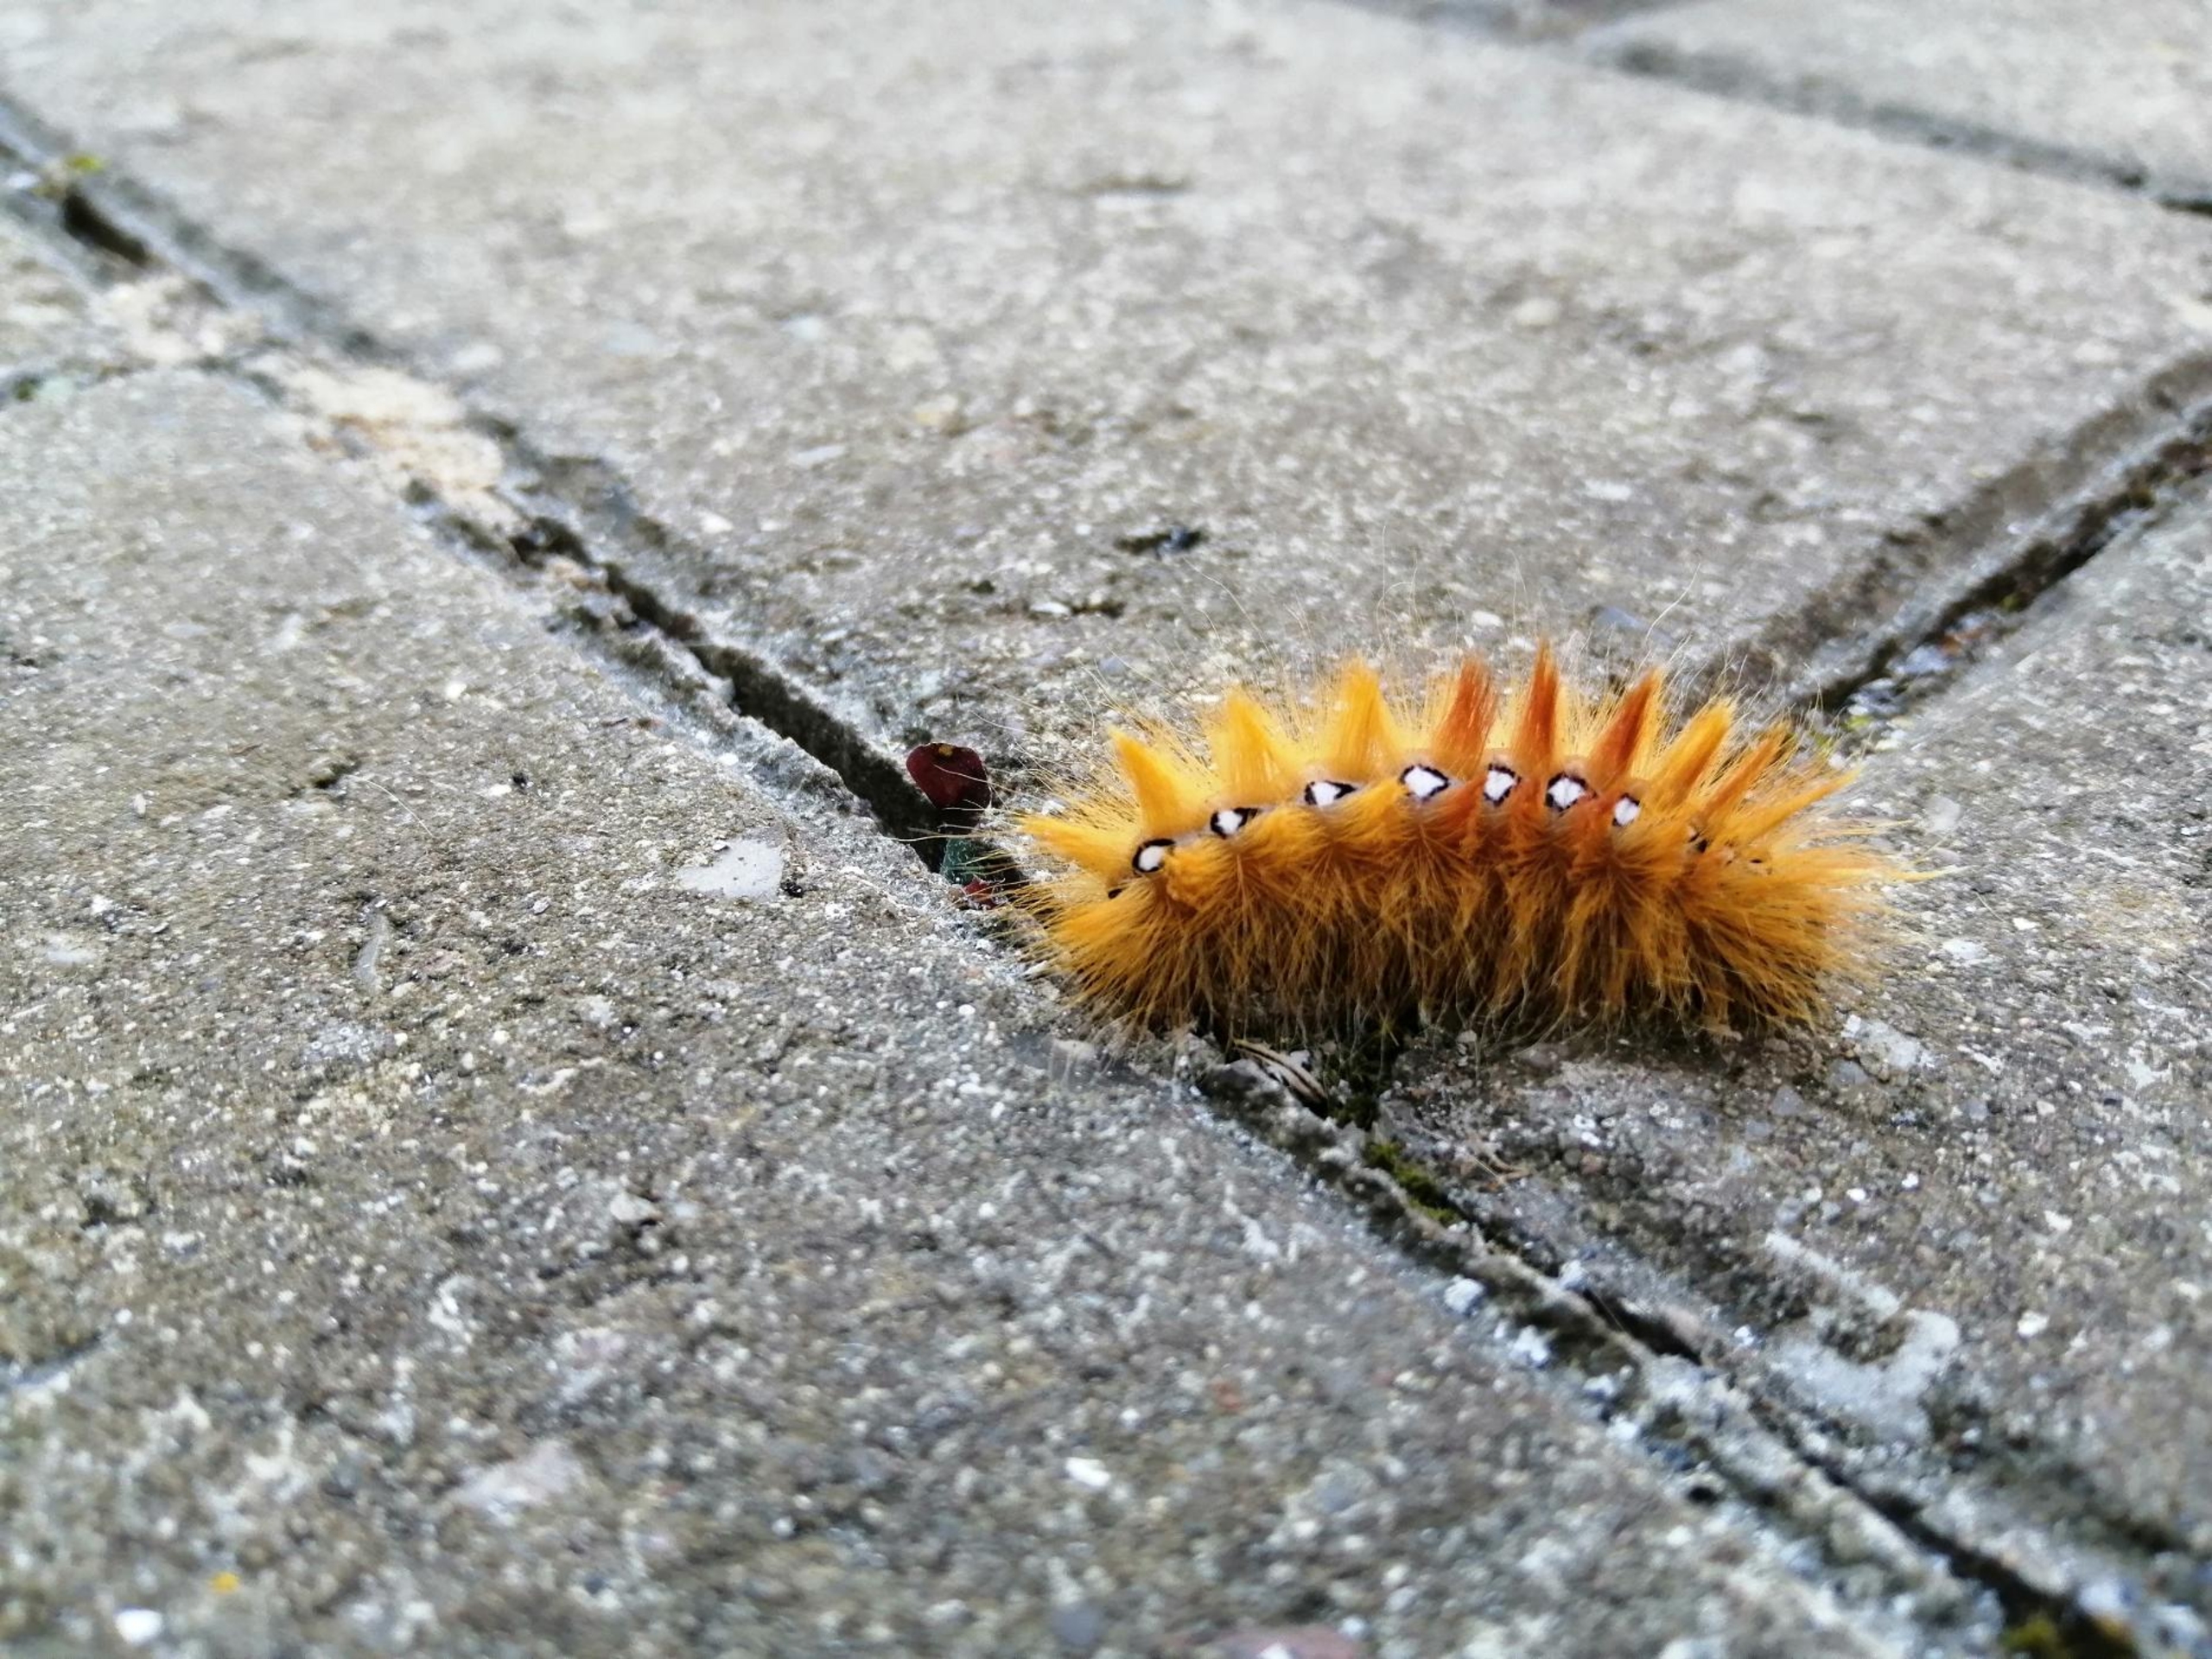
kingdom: Animalia
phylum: Arthropoda
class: Insecta
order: Lepidoptera
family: Noctuidae
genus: Acronicta
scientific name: Acronicta aceris
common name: Ahornugle
